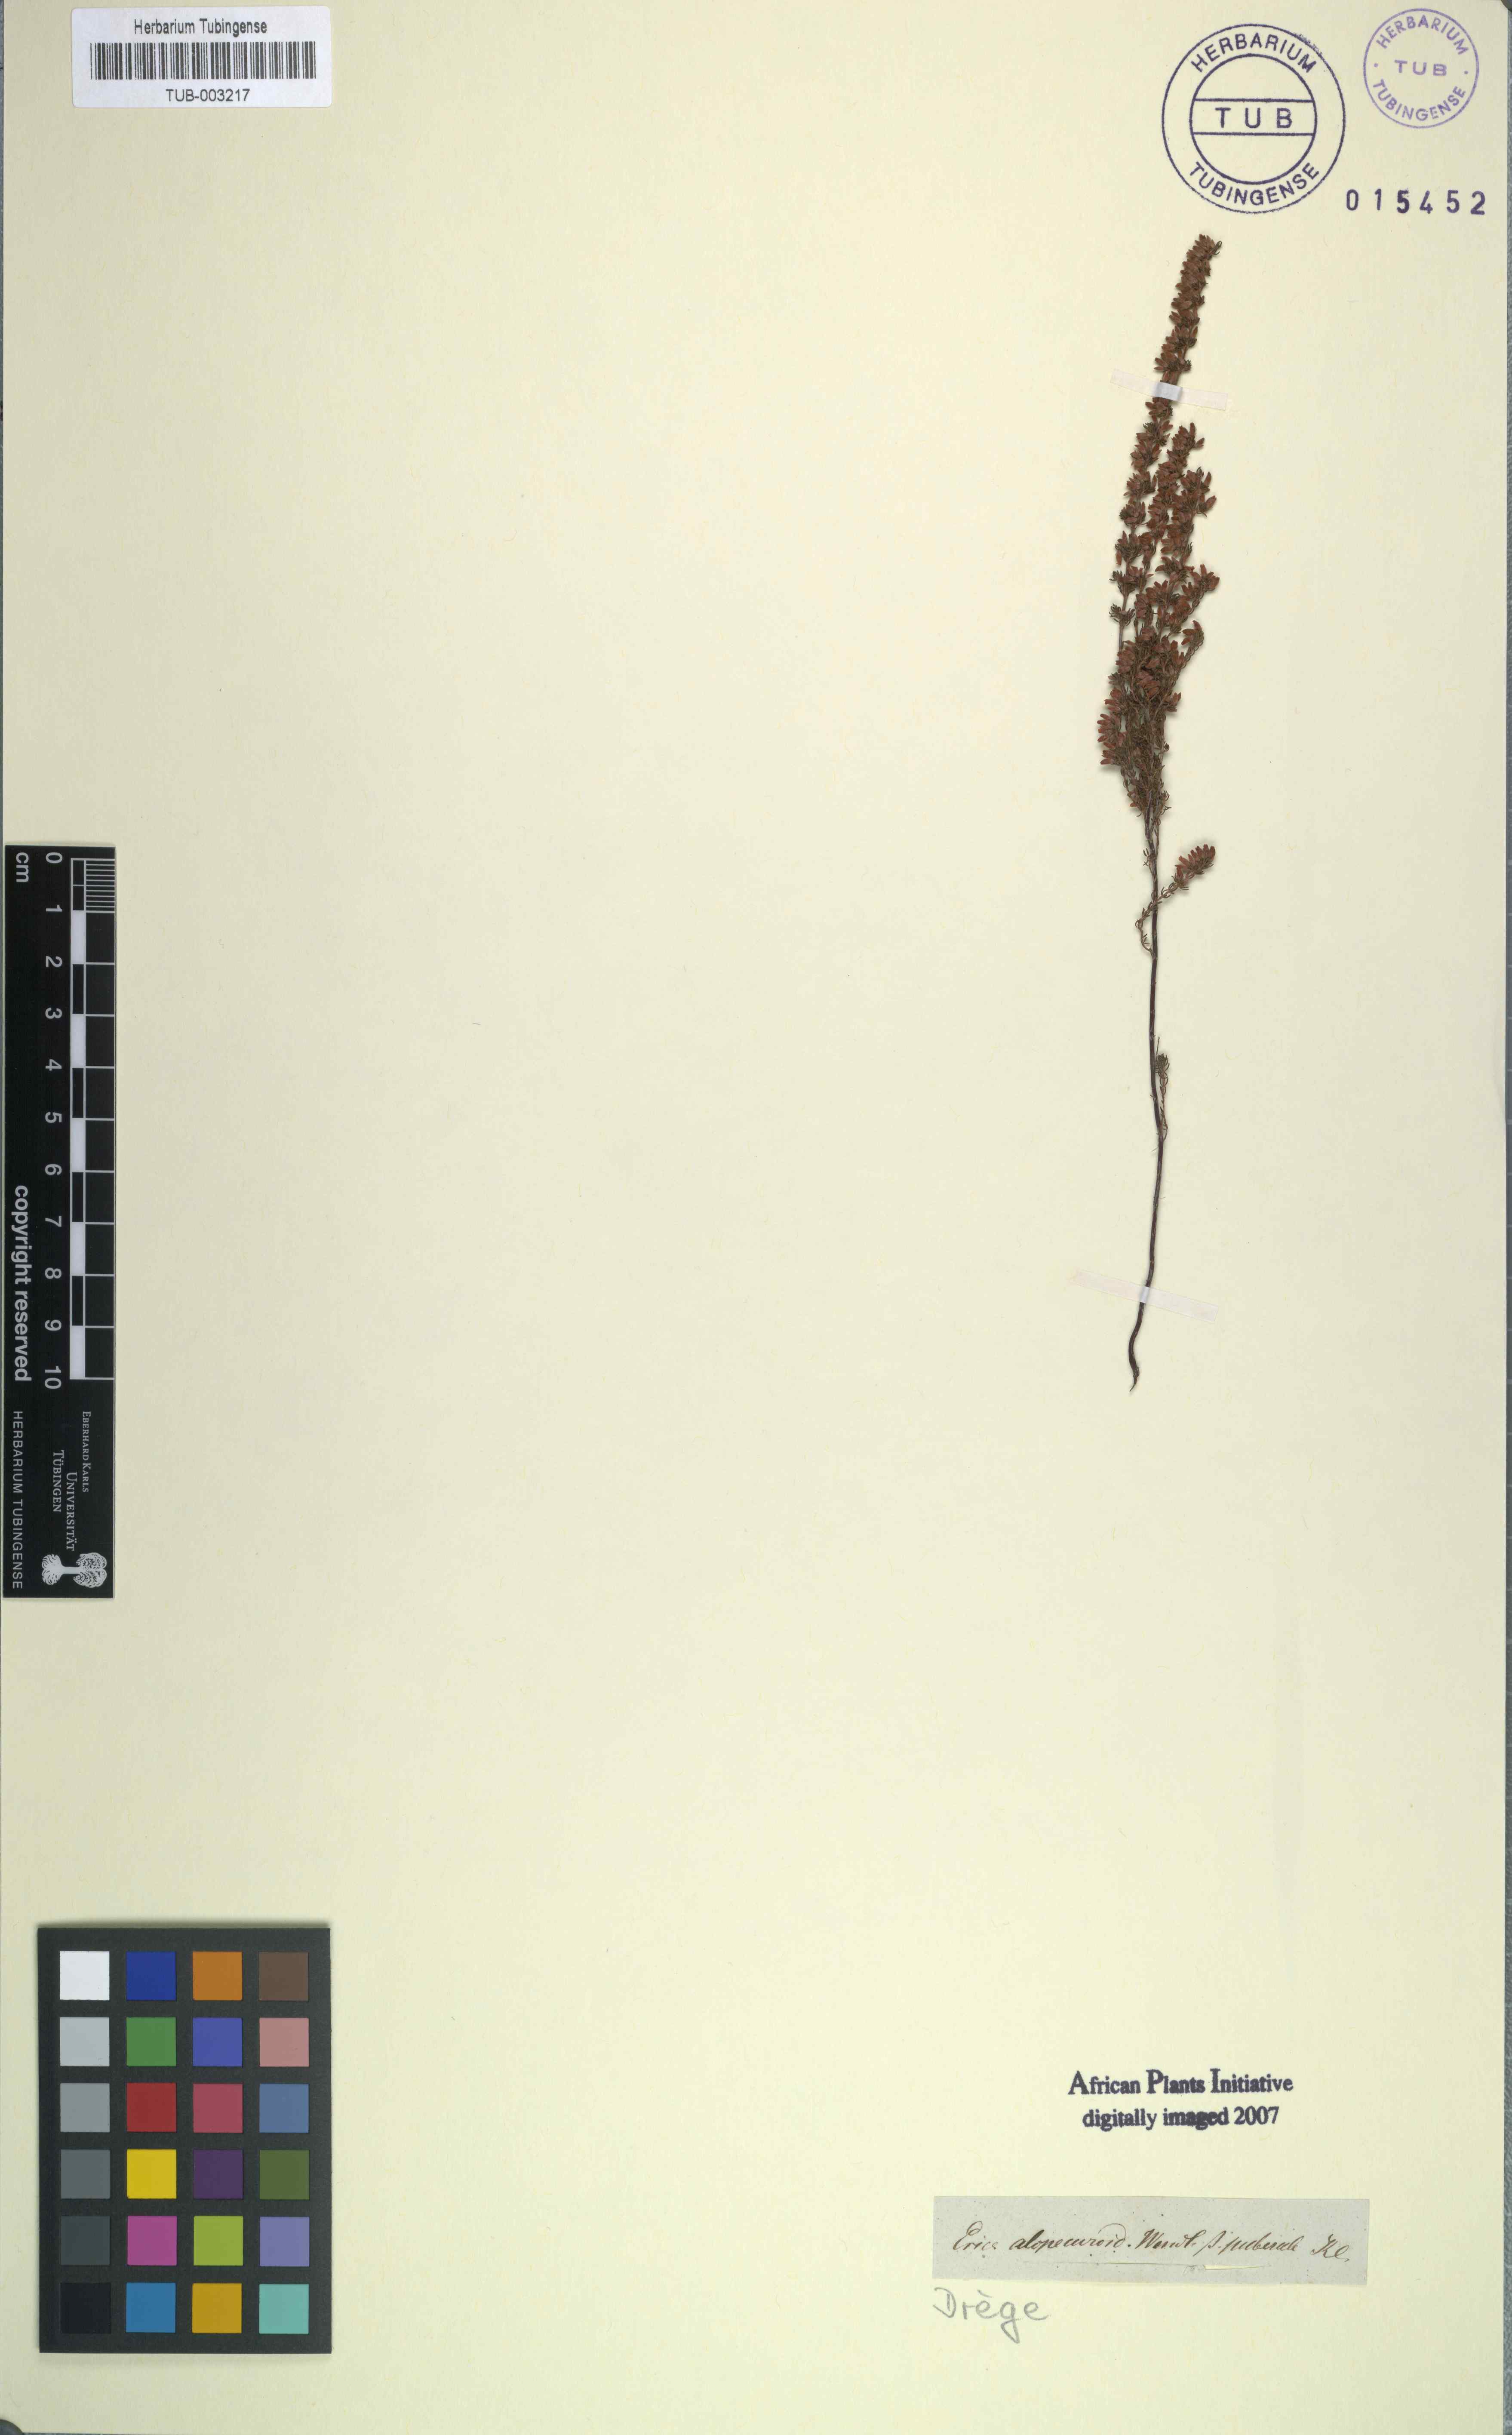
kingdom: Plantae
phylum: Tracheophyta
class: Magnoliopsida
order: Ericales
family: Ericaceae
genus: Erica
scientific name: Erica intervallaris
